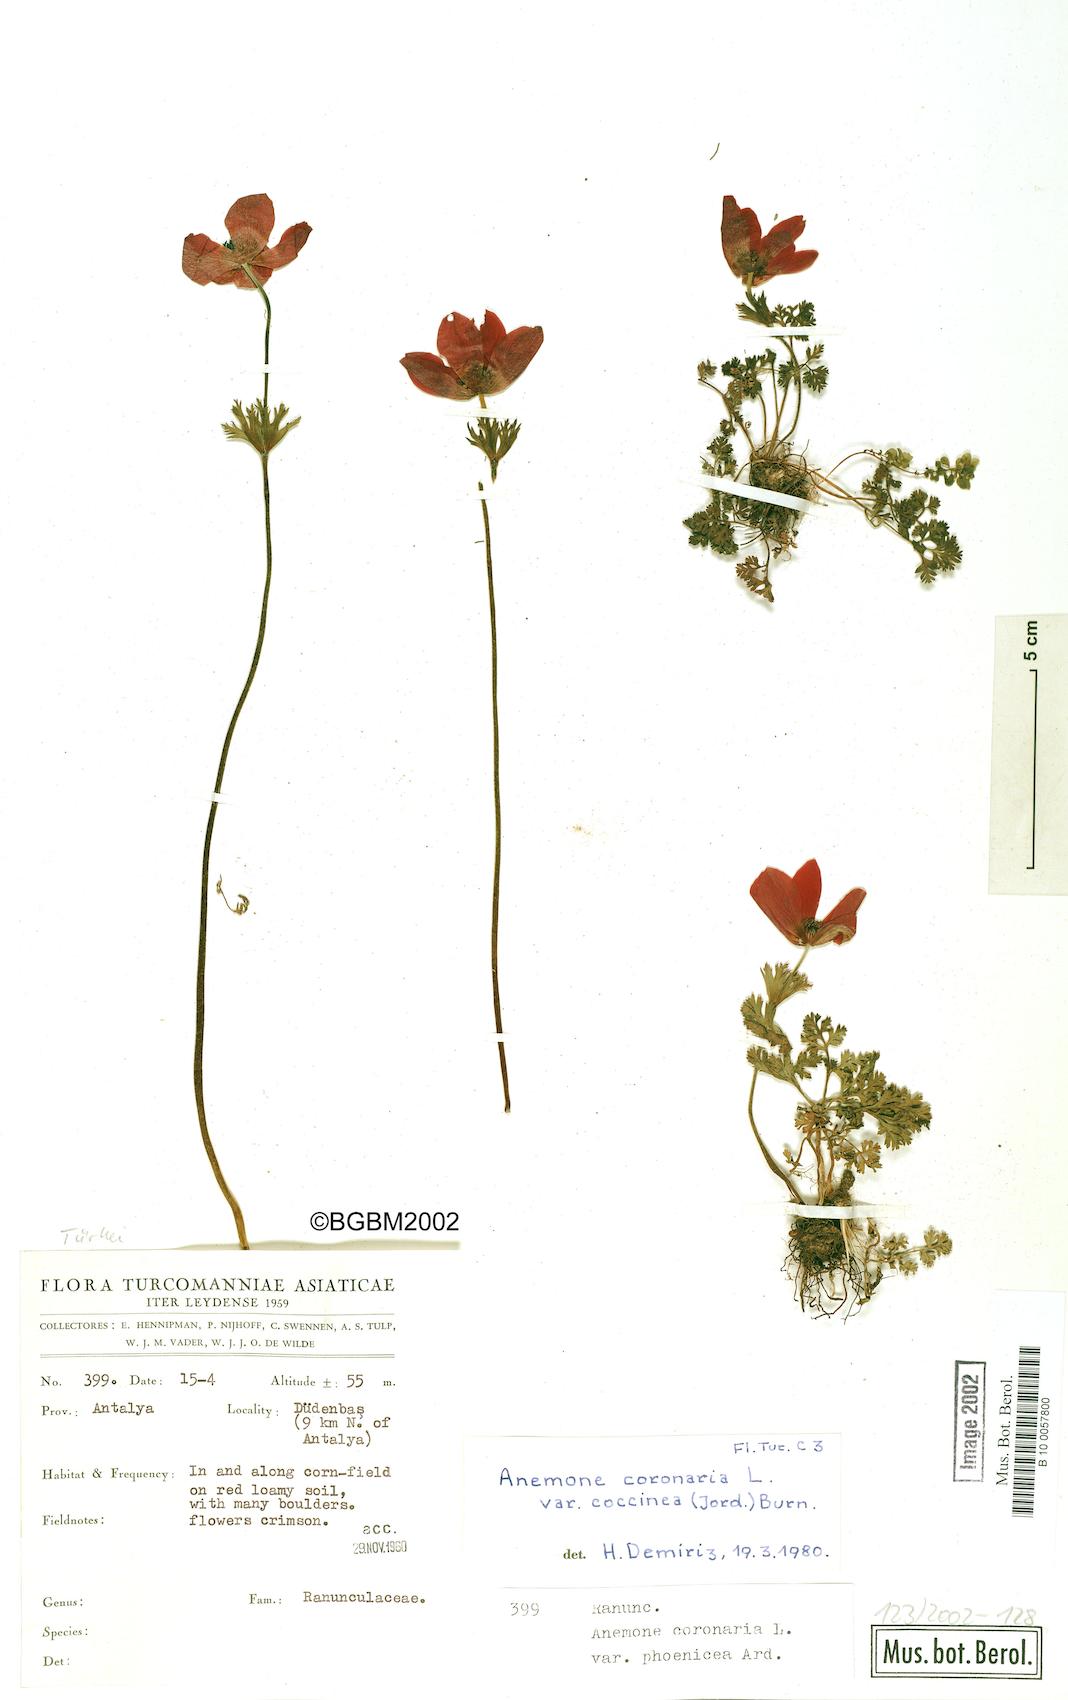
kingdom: Plantae
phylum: Tracheophyta
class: Magnoliopsida
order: Ranunculales
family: Ranunculaceae
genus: Anemone
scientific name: Anemone coronaria
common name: Poppy anemone
